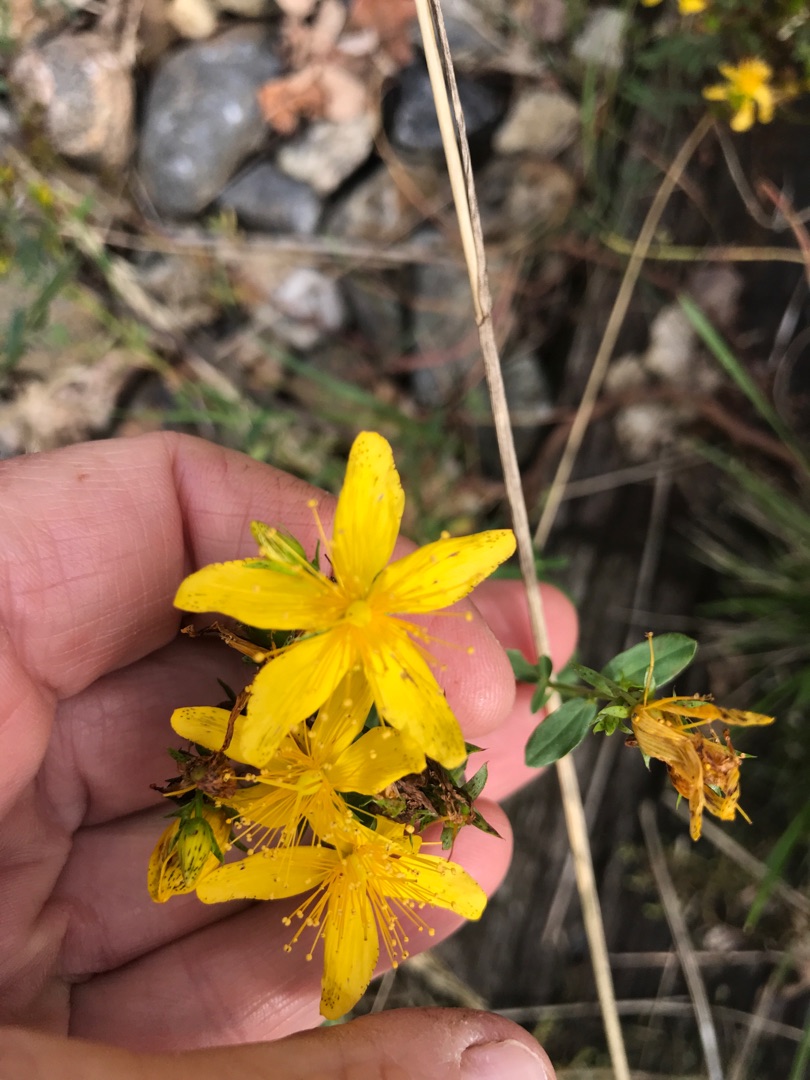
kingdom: Plantae
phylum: Tracheophyta
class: Magnoliopsida
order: Malpighiales
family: Hypericaceae
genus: Hypericum
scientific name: Hypericum perforatum
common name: Prikbladet perikon
